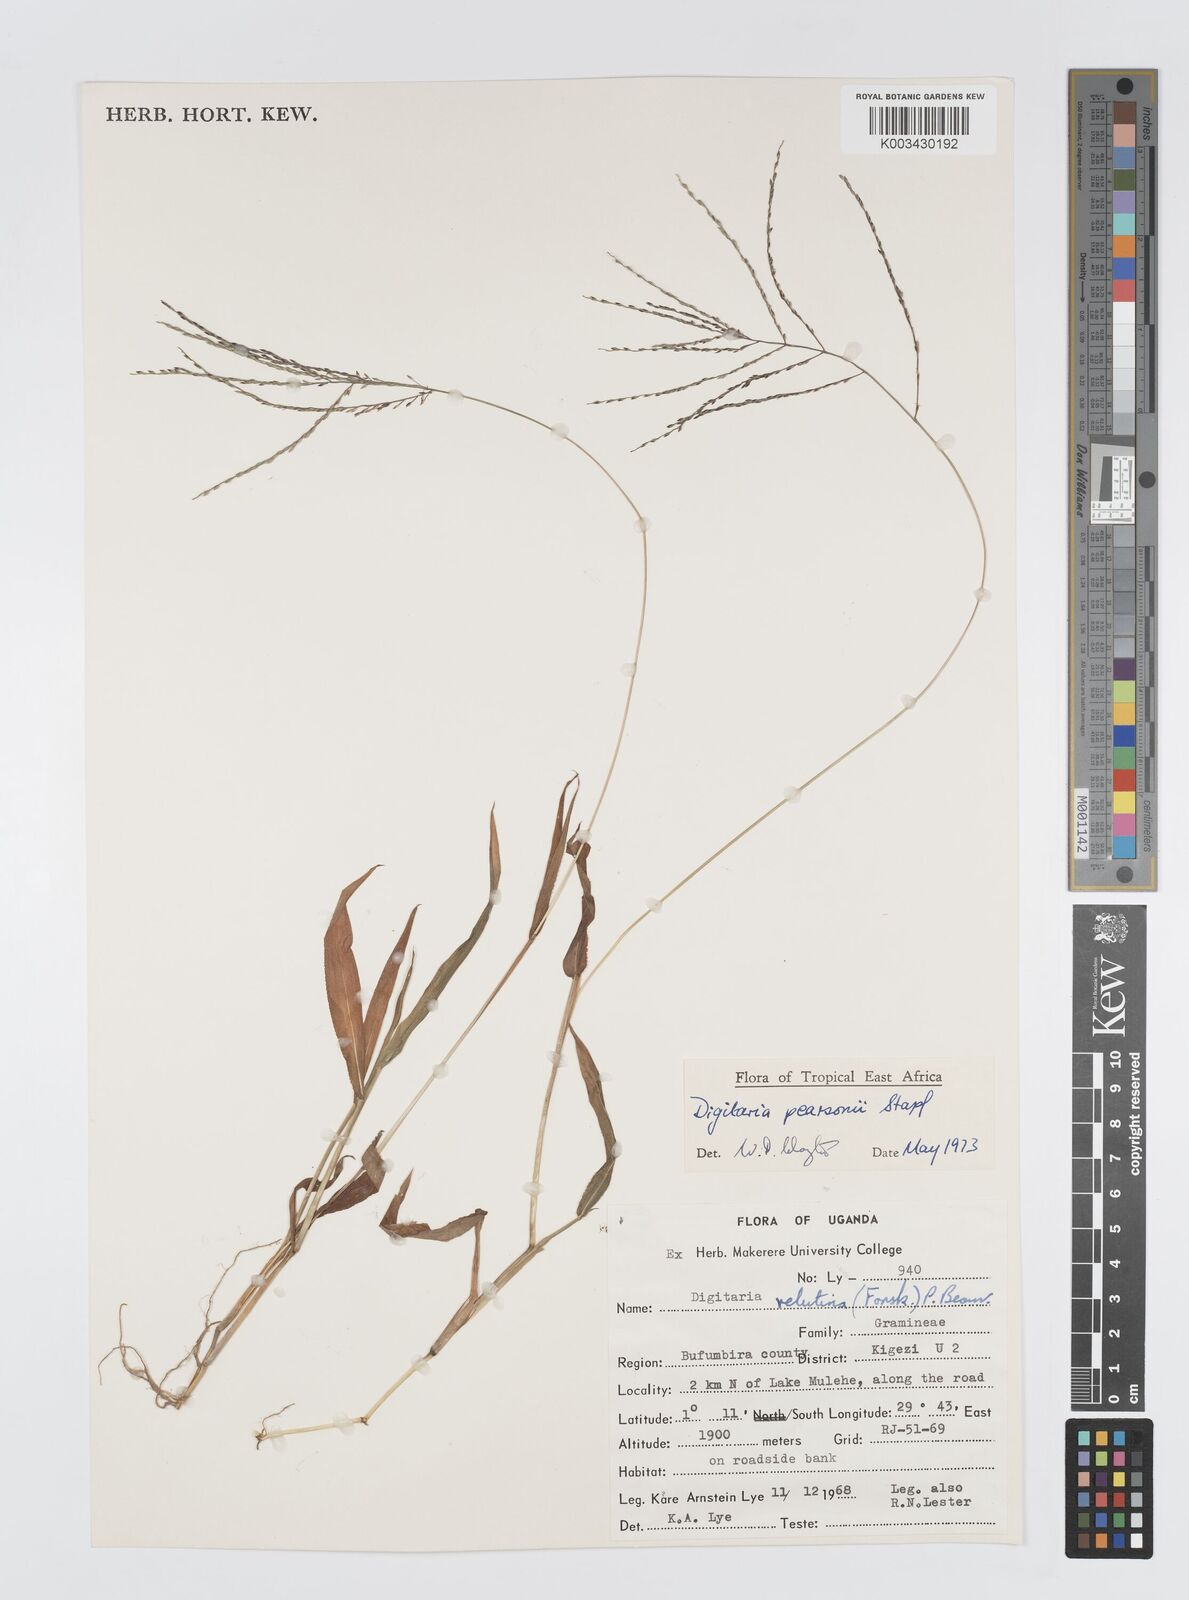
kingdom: Plantae
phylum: Tracheophyta
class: Liliopsida
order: Poales
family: Poaceae
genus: Digitaria
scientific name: Digitaria pearsonii
